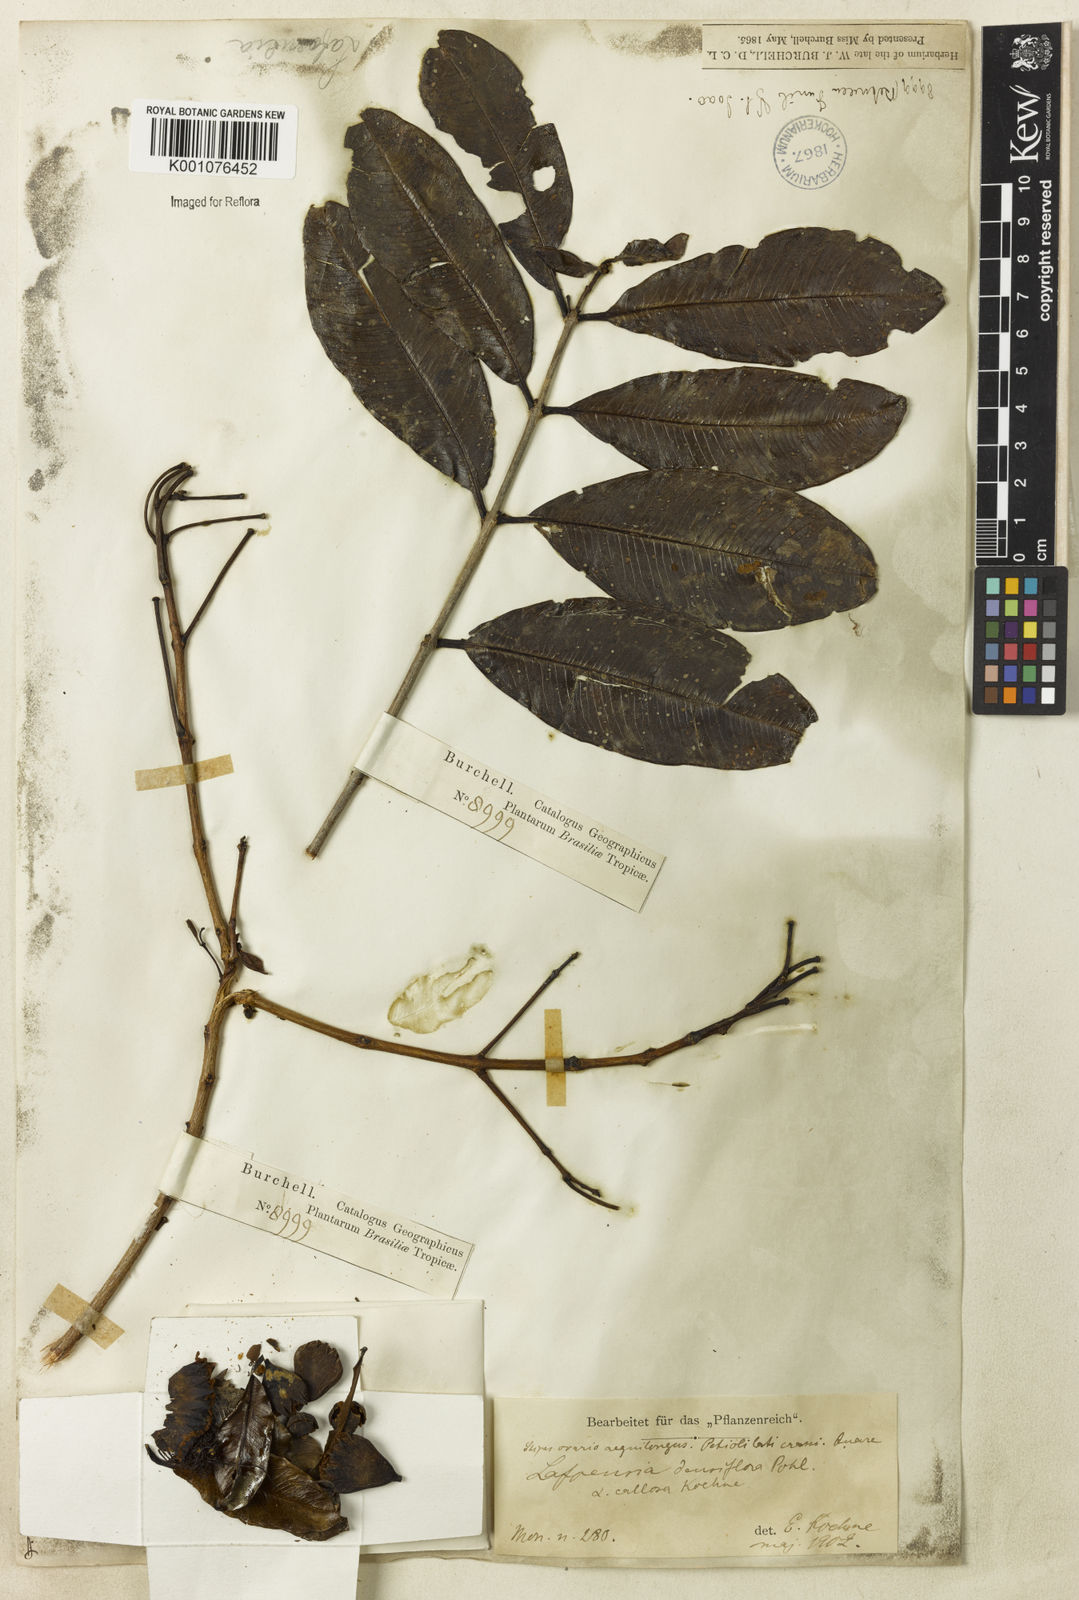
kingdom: Plantae
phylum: Tracheophyta
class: Magnoliopsida
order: Myrtales
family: Lythraceae
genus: Lafoensia
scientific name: Lafoensia vandelliana
